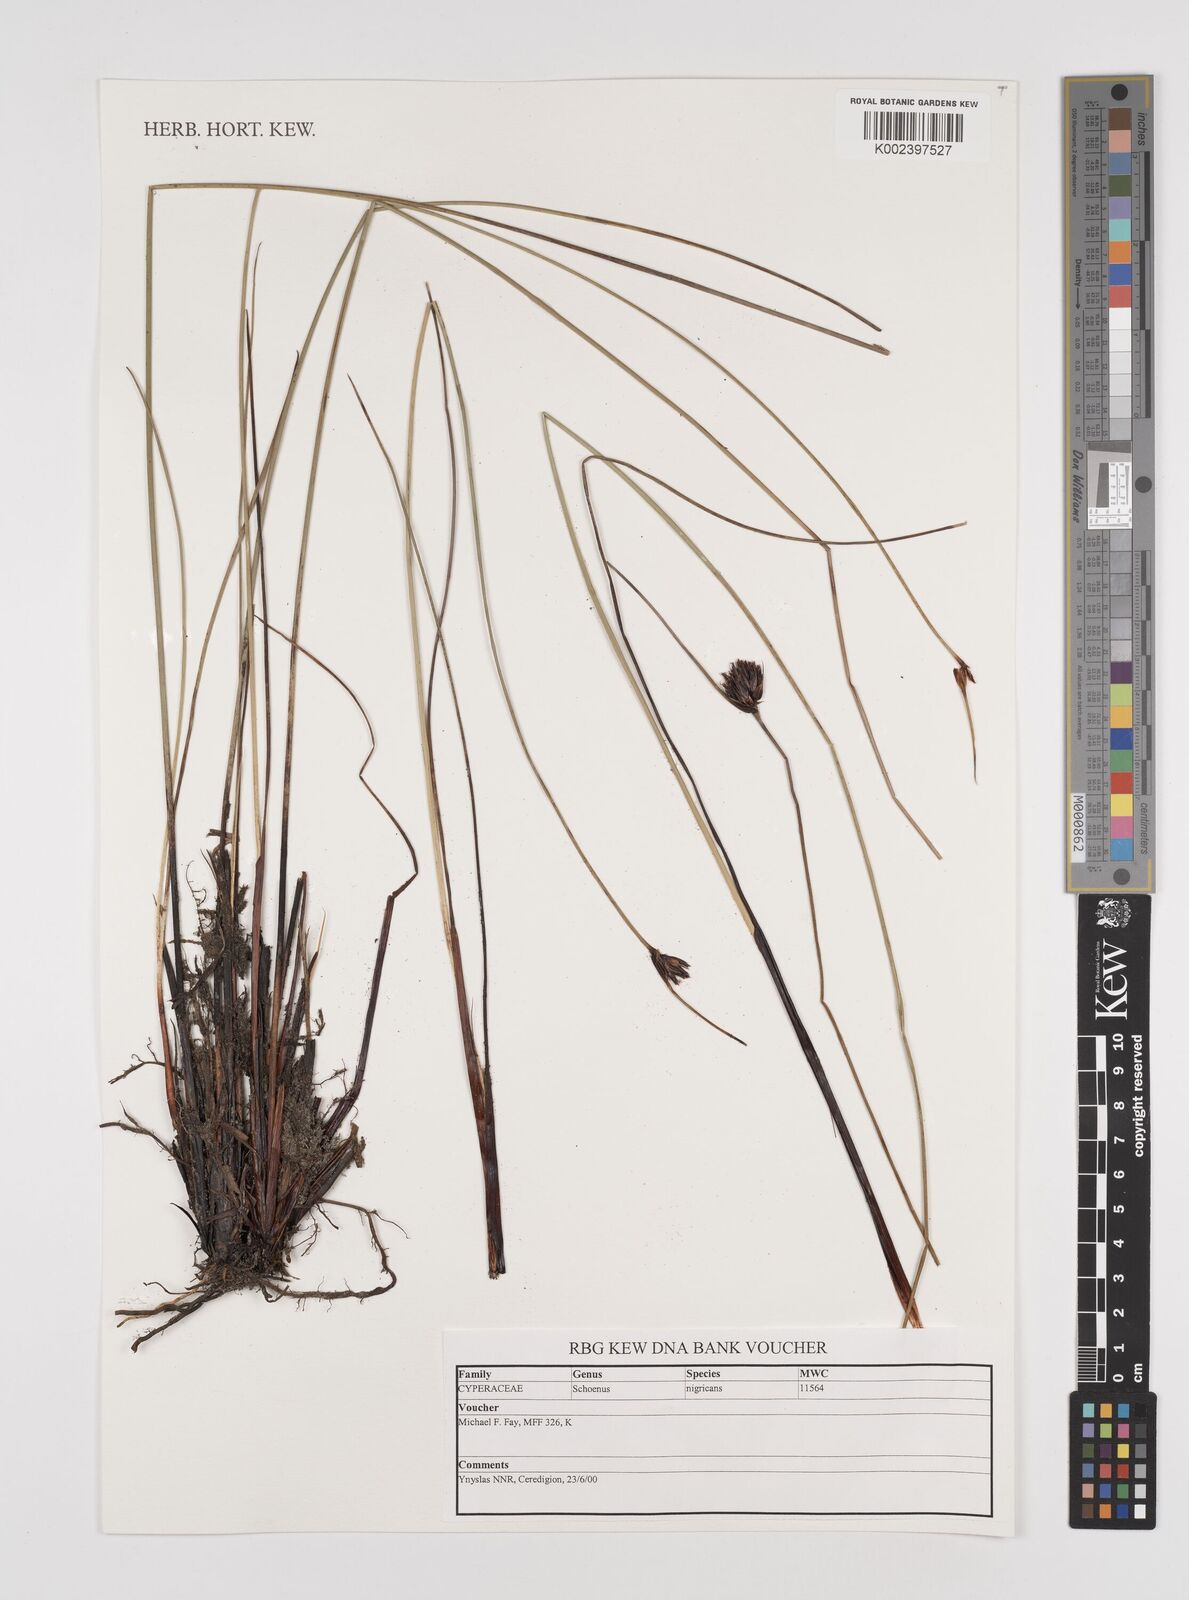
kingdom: Plantae
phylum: Tracheophyta
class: Liliopsida
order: Poales
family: Cyperaceae
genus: Schoenus
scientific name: Schoenus nigricans
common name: Black bog-rush
